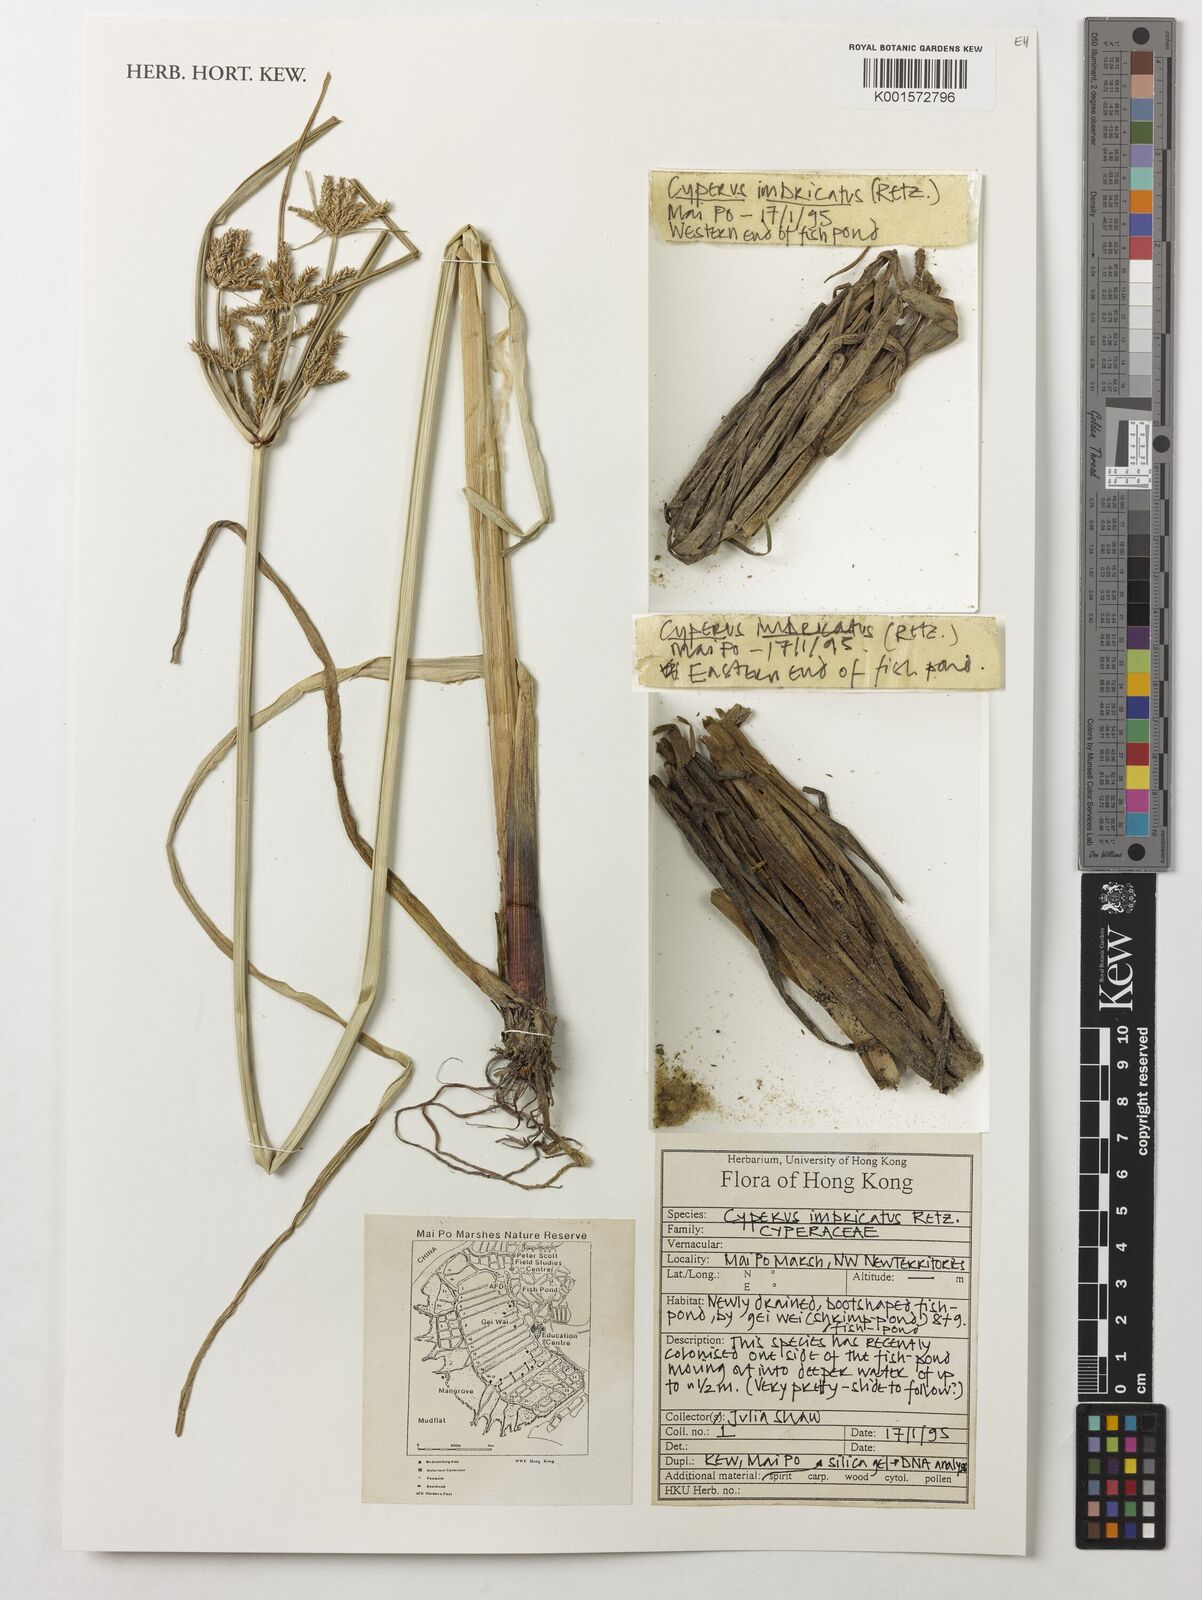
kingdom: Plantae
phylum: Tracheophyta
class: Liliopsida
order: Poales
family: Cyperaceae
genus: Cyperus
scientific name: Cyperus imbricatus
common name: Shingle flatsedge
